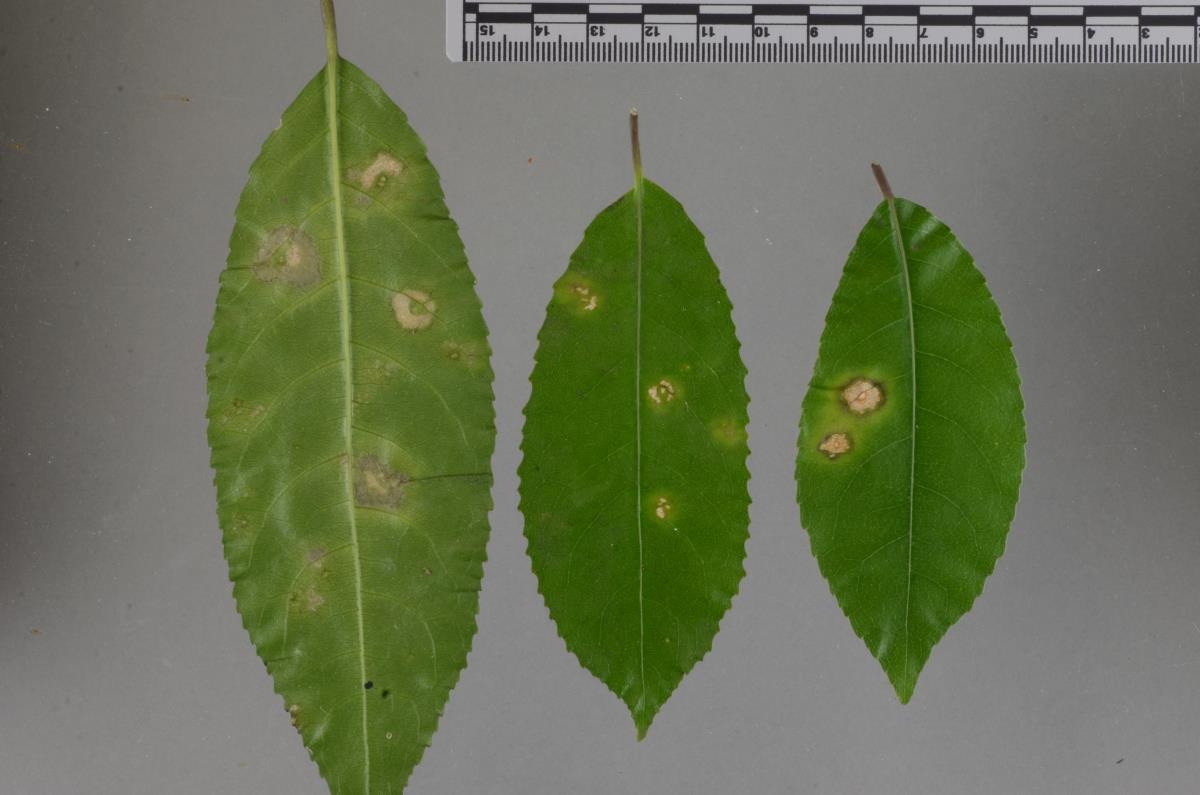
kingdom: Fungi
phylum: Ascomycota
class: Dothideomycetes
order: Capnodiales
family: Mycosphaerellaceae
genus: Mycosphaerella
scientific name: Mycosphaerella
